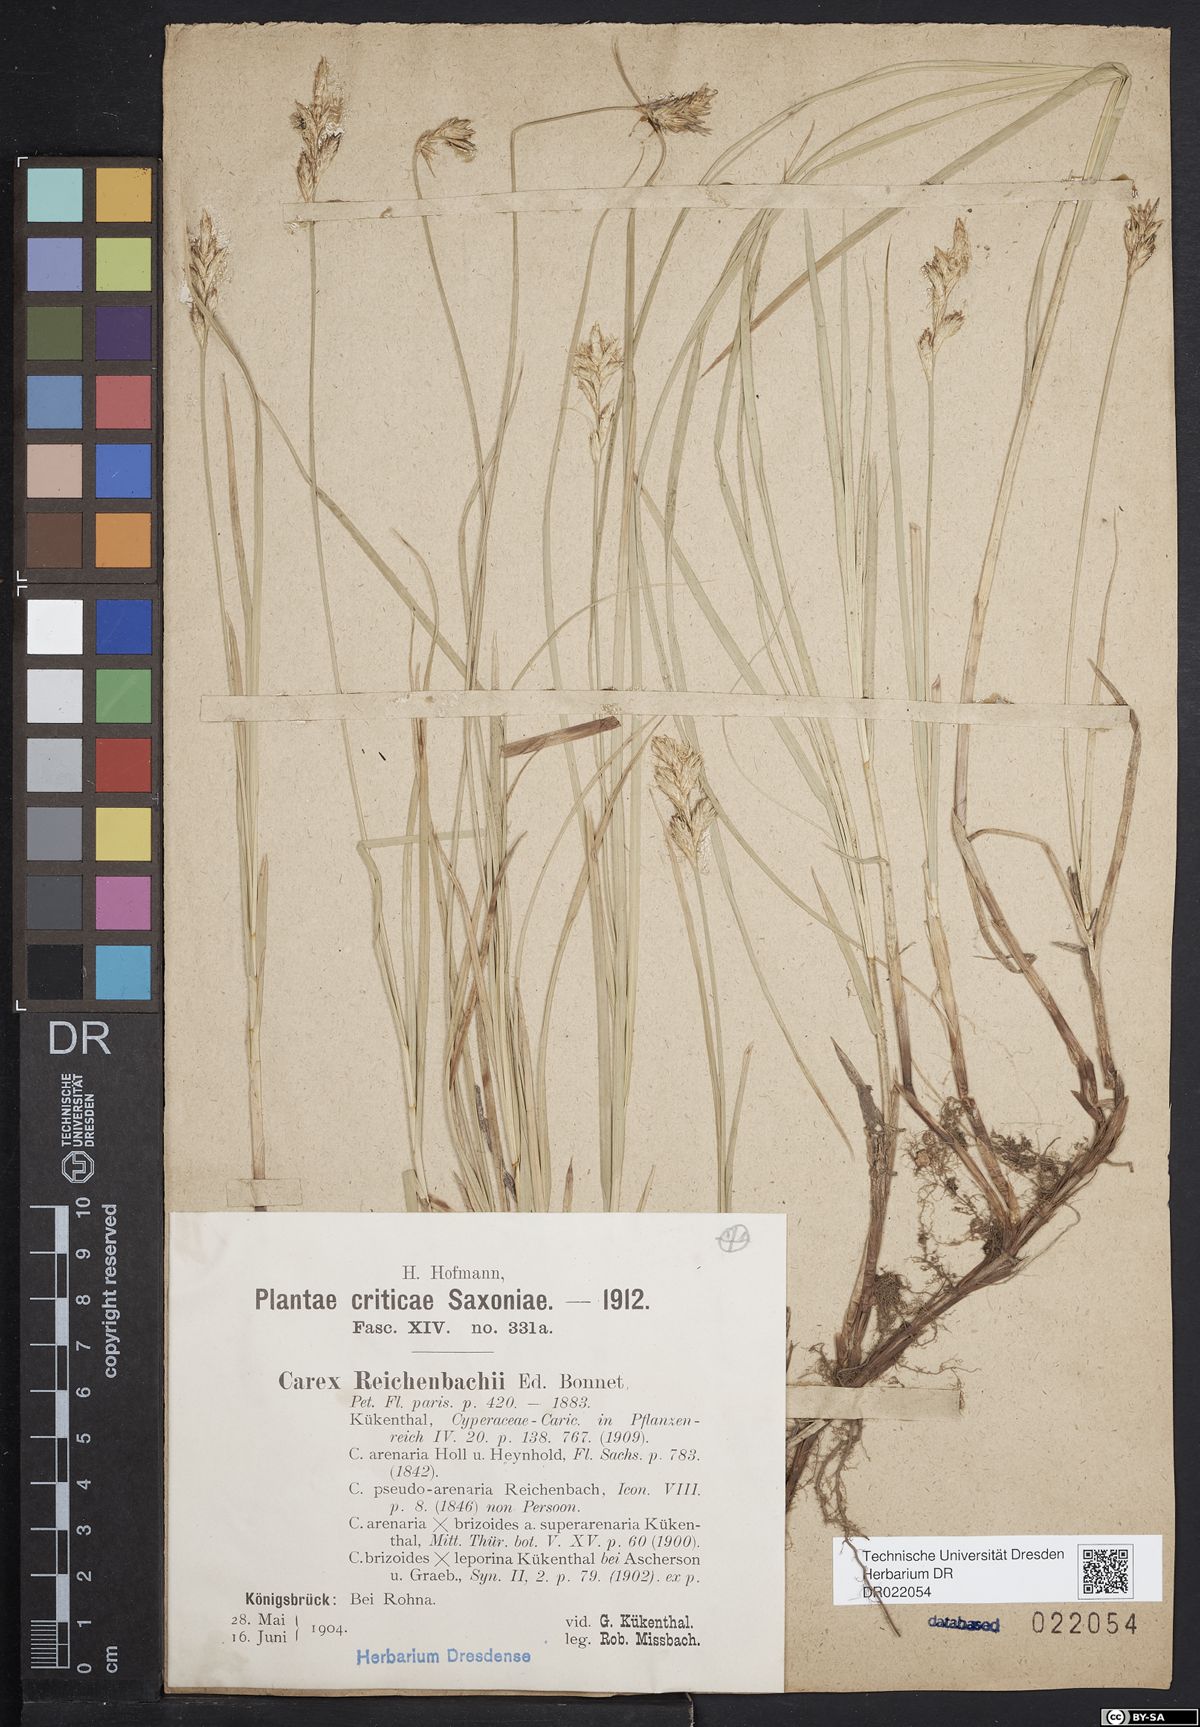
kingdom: Plantae
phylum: Tracheophyta
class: Liliopsida
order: Poales
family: Cyperaceae
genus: Carex
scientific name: Carex pseudobrizoides
